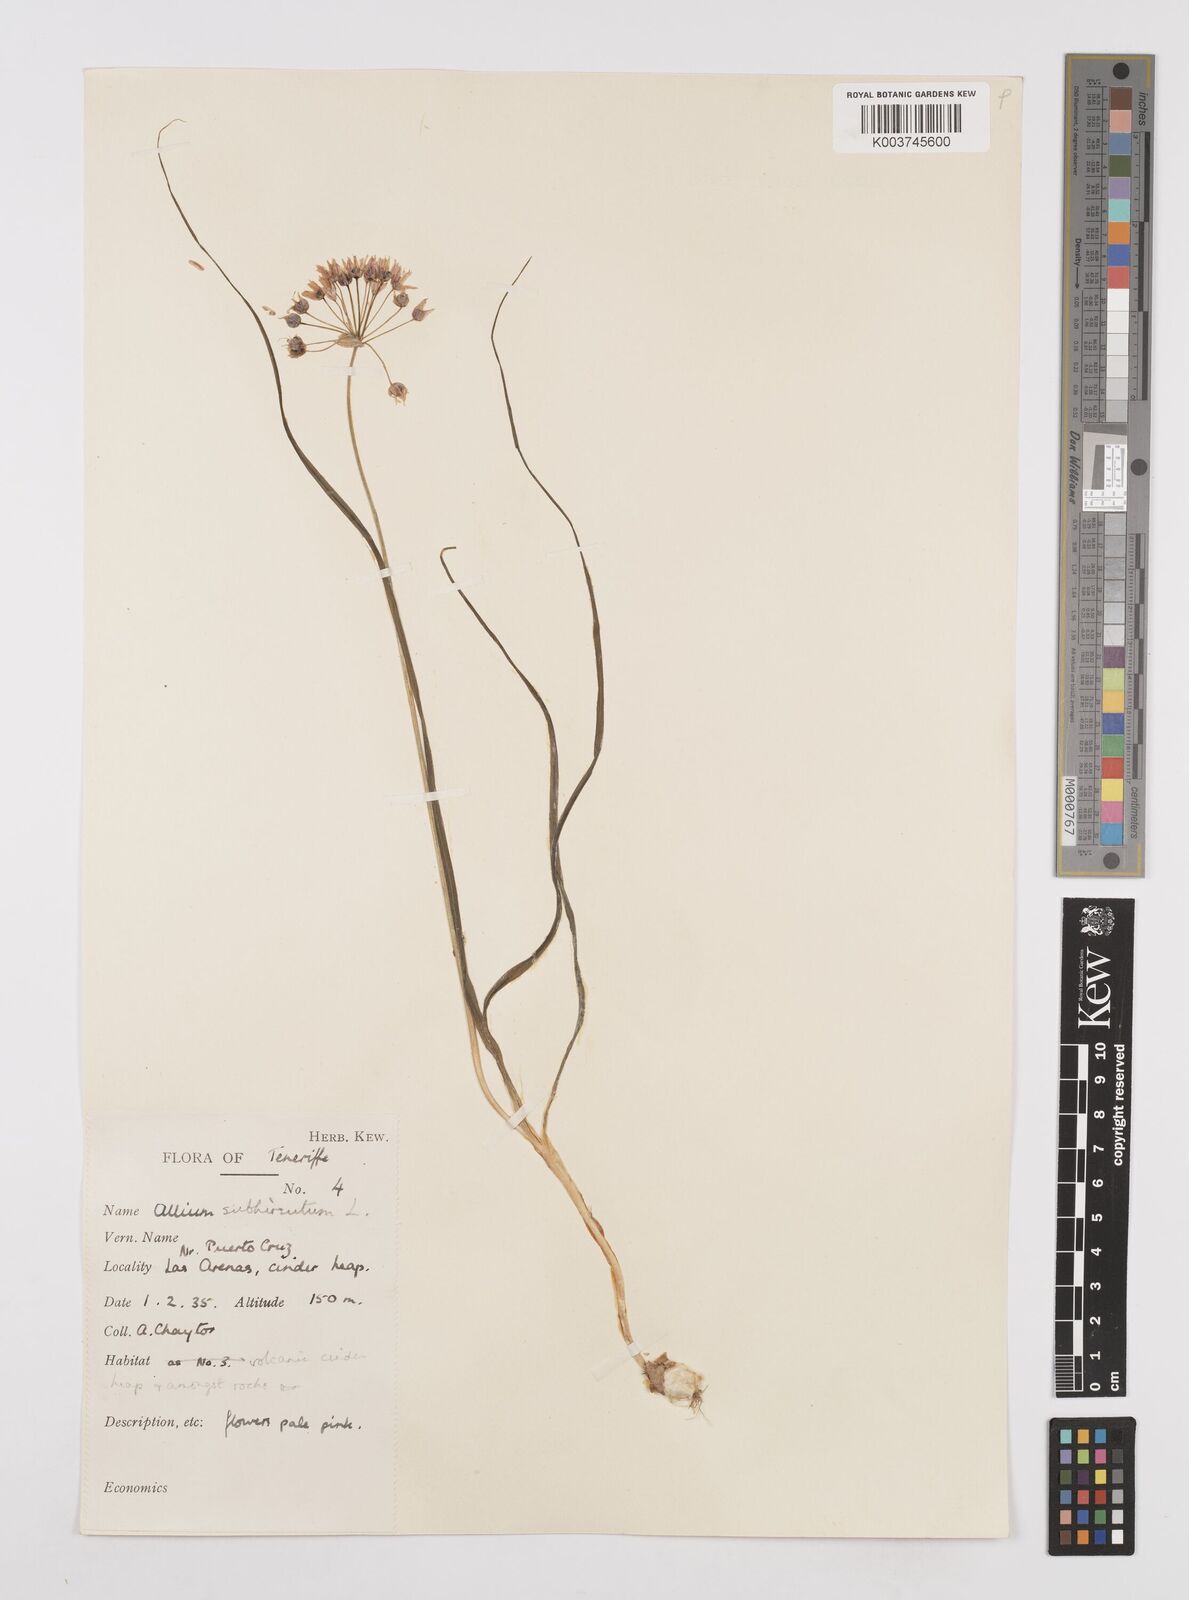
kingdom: Plantae
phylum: Tracheophyta
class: Liliopsida
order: Asparagales
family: Amaryllidaceae
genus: Allium
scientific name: Allium subvillosum
